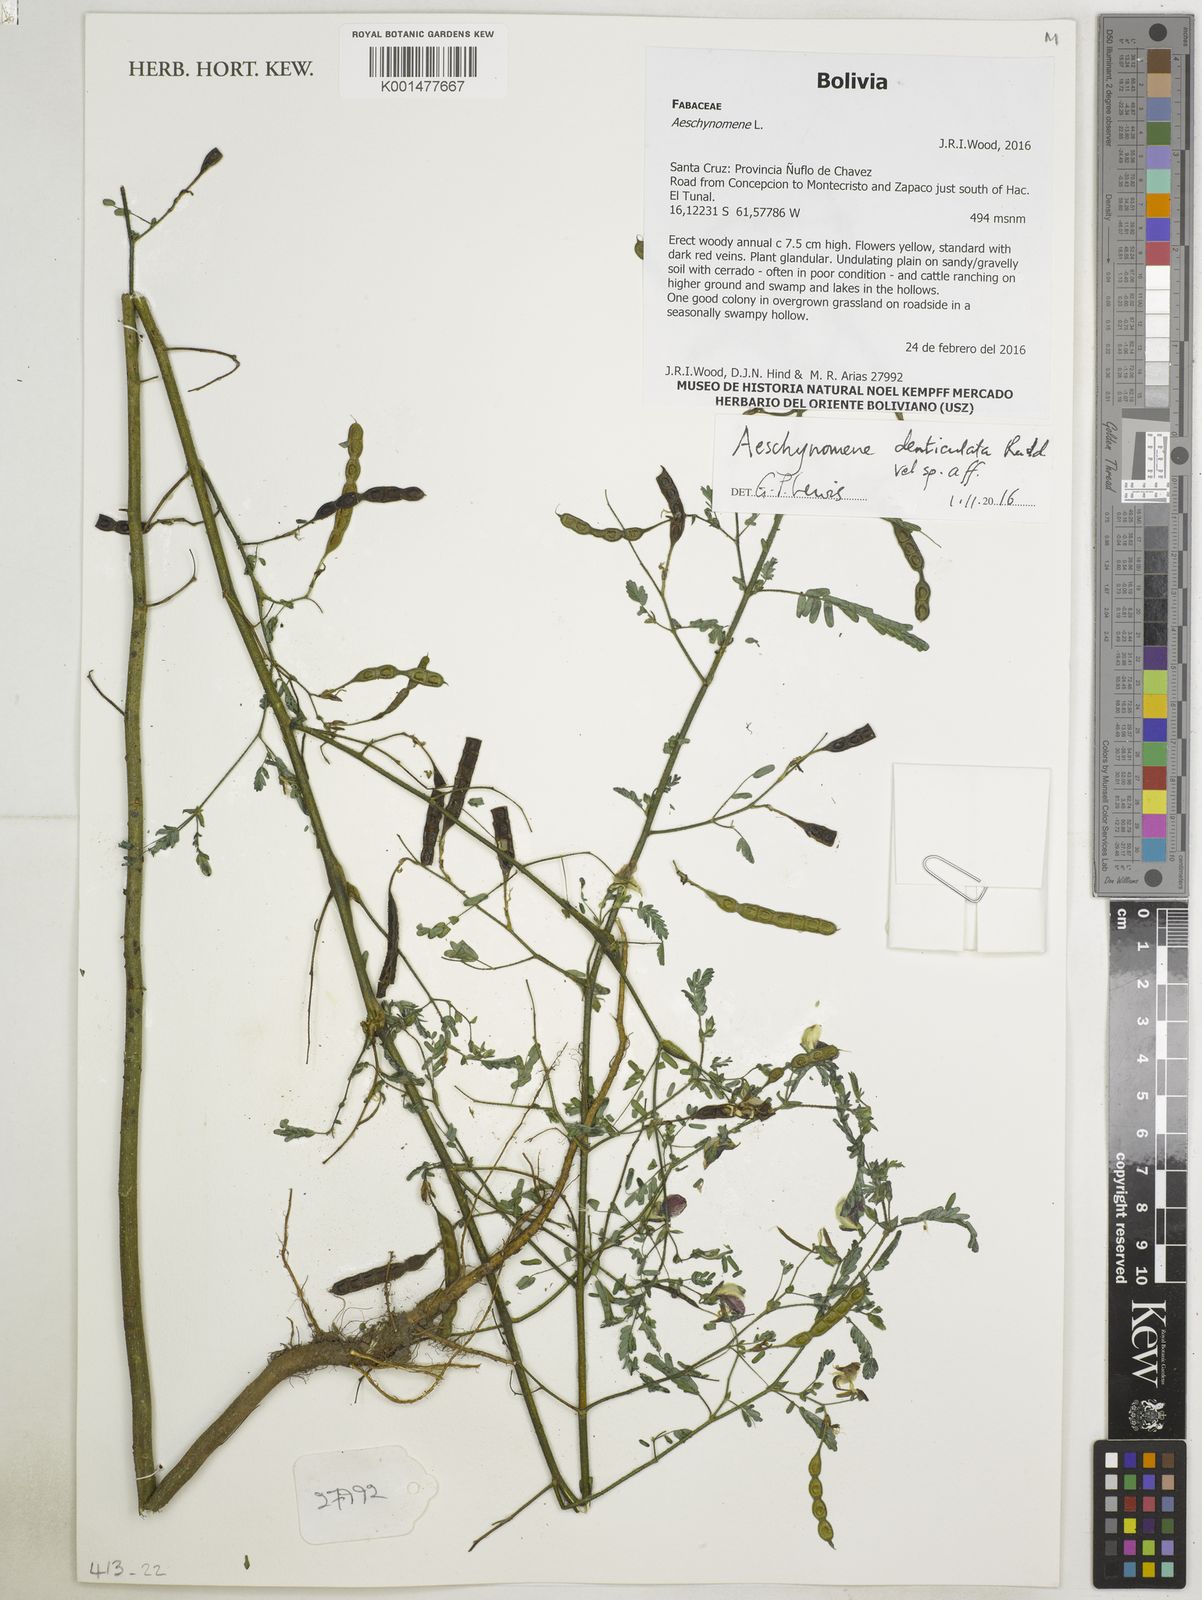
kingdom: Plantae
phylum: Tracheophyta
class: Magnoliopsida
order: Fabales
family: Fabaceae
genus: Aeschynomene
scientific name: Aeschynomene denticulata
